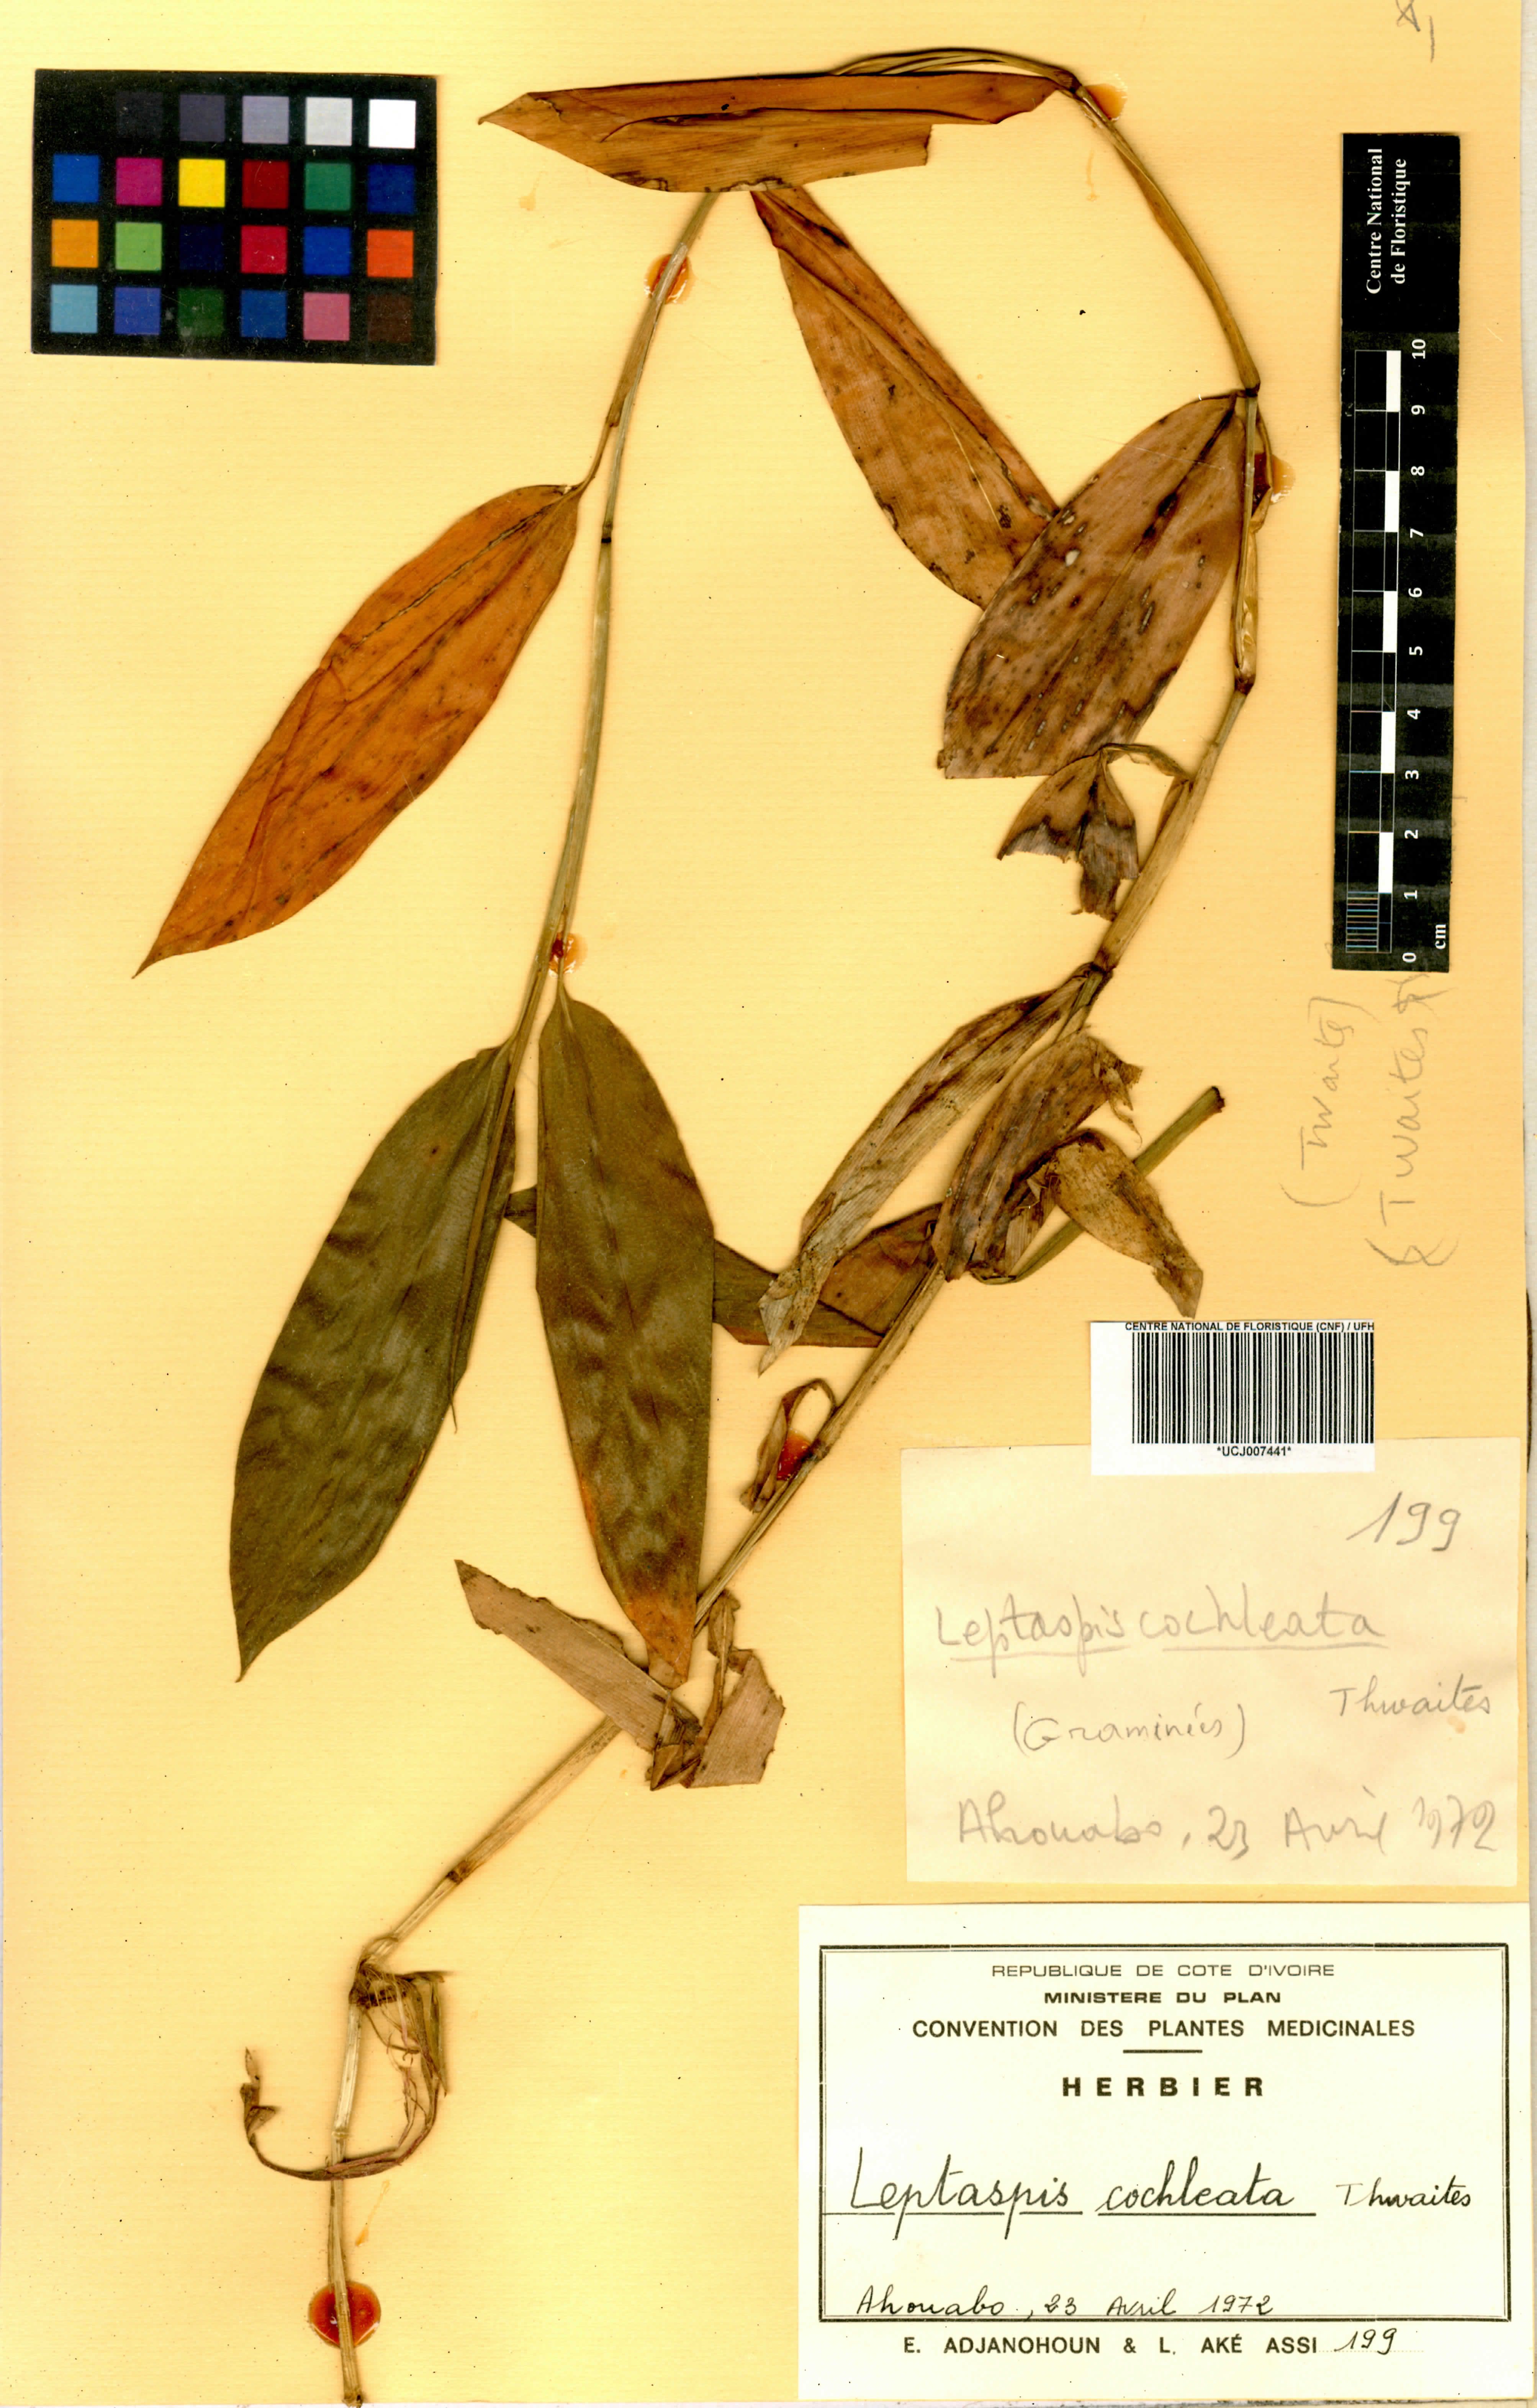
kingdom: Plantae
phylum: Tracheophyta
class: Liliopsida
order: Poales
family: Poaceae
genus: Leptaspis
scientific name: Leptaspis zeylanica
